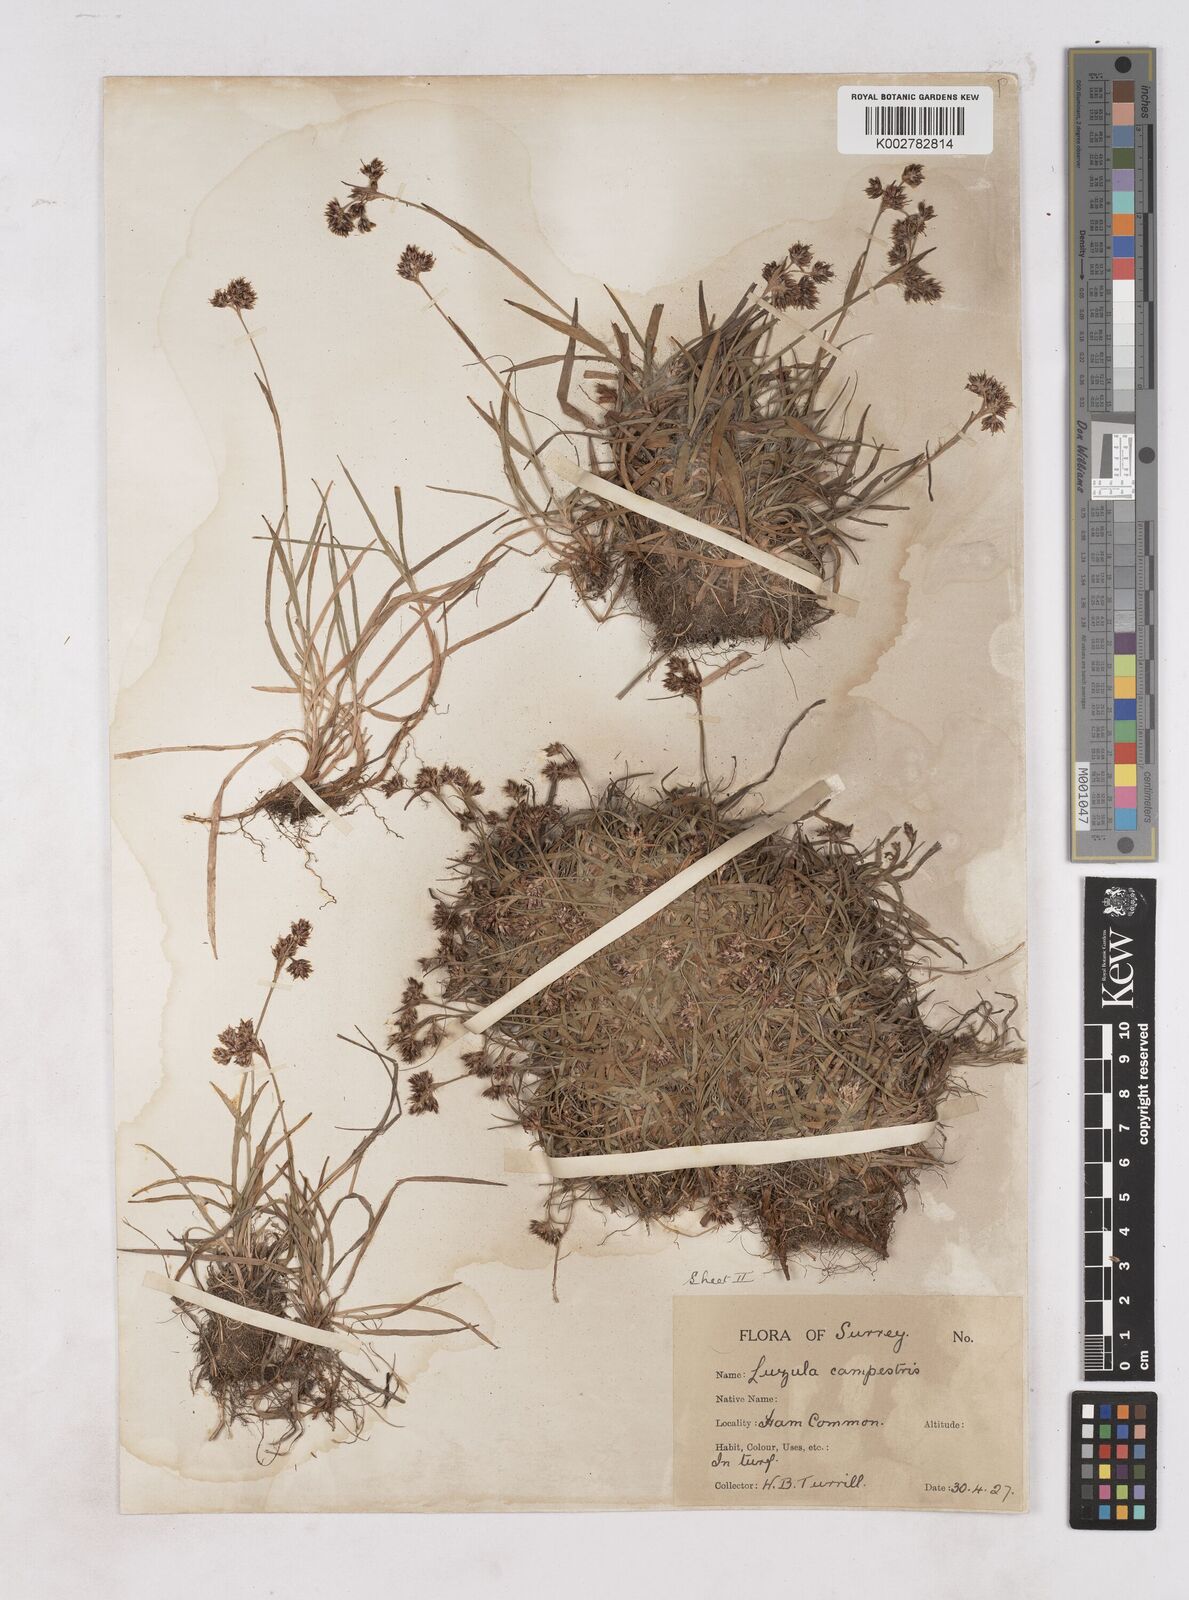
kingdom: Plantae
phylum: Tracheophyta
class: Liliopsida
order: Poales
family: Juncaceae
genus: Luzula
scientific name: Luzula campestris
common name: Field wood-rush
